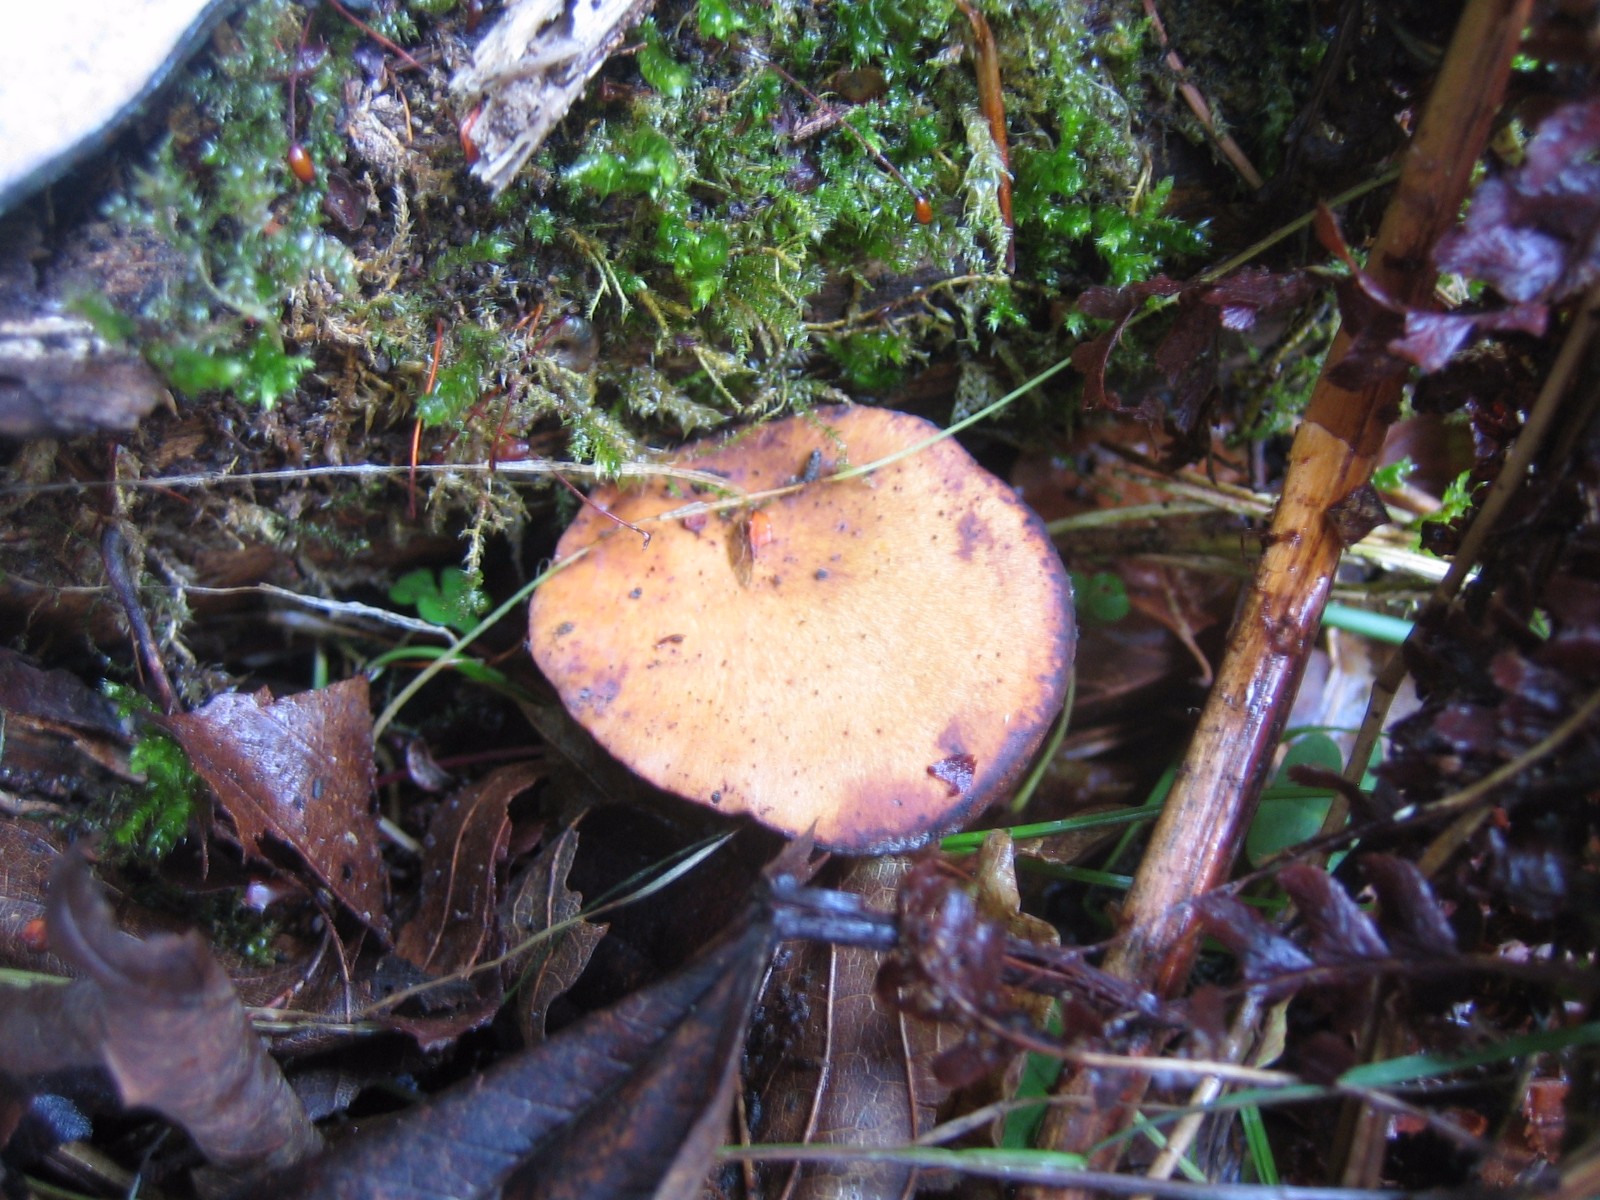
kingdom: Fungi
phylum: Basidiomycota
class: Agaricomycetes
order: Polyporales
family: Polyporaceae
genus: Cerioporus
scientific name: Cerioporus varius
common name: foranderlig stilkporesvamp
